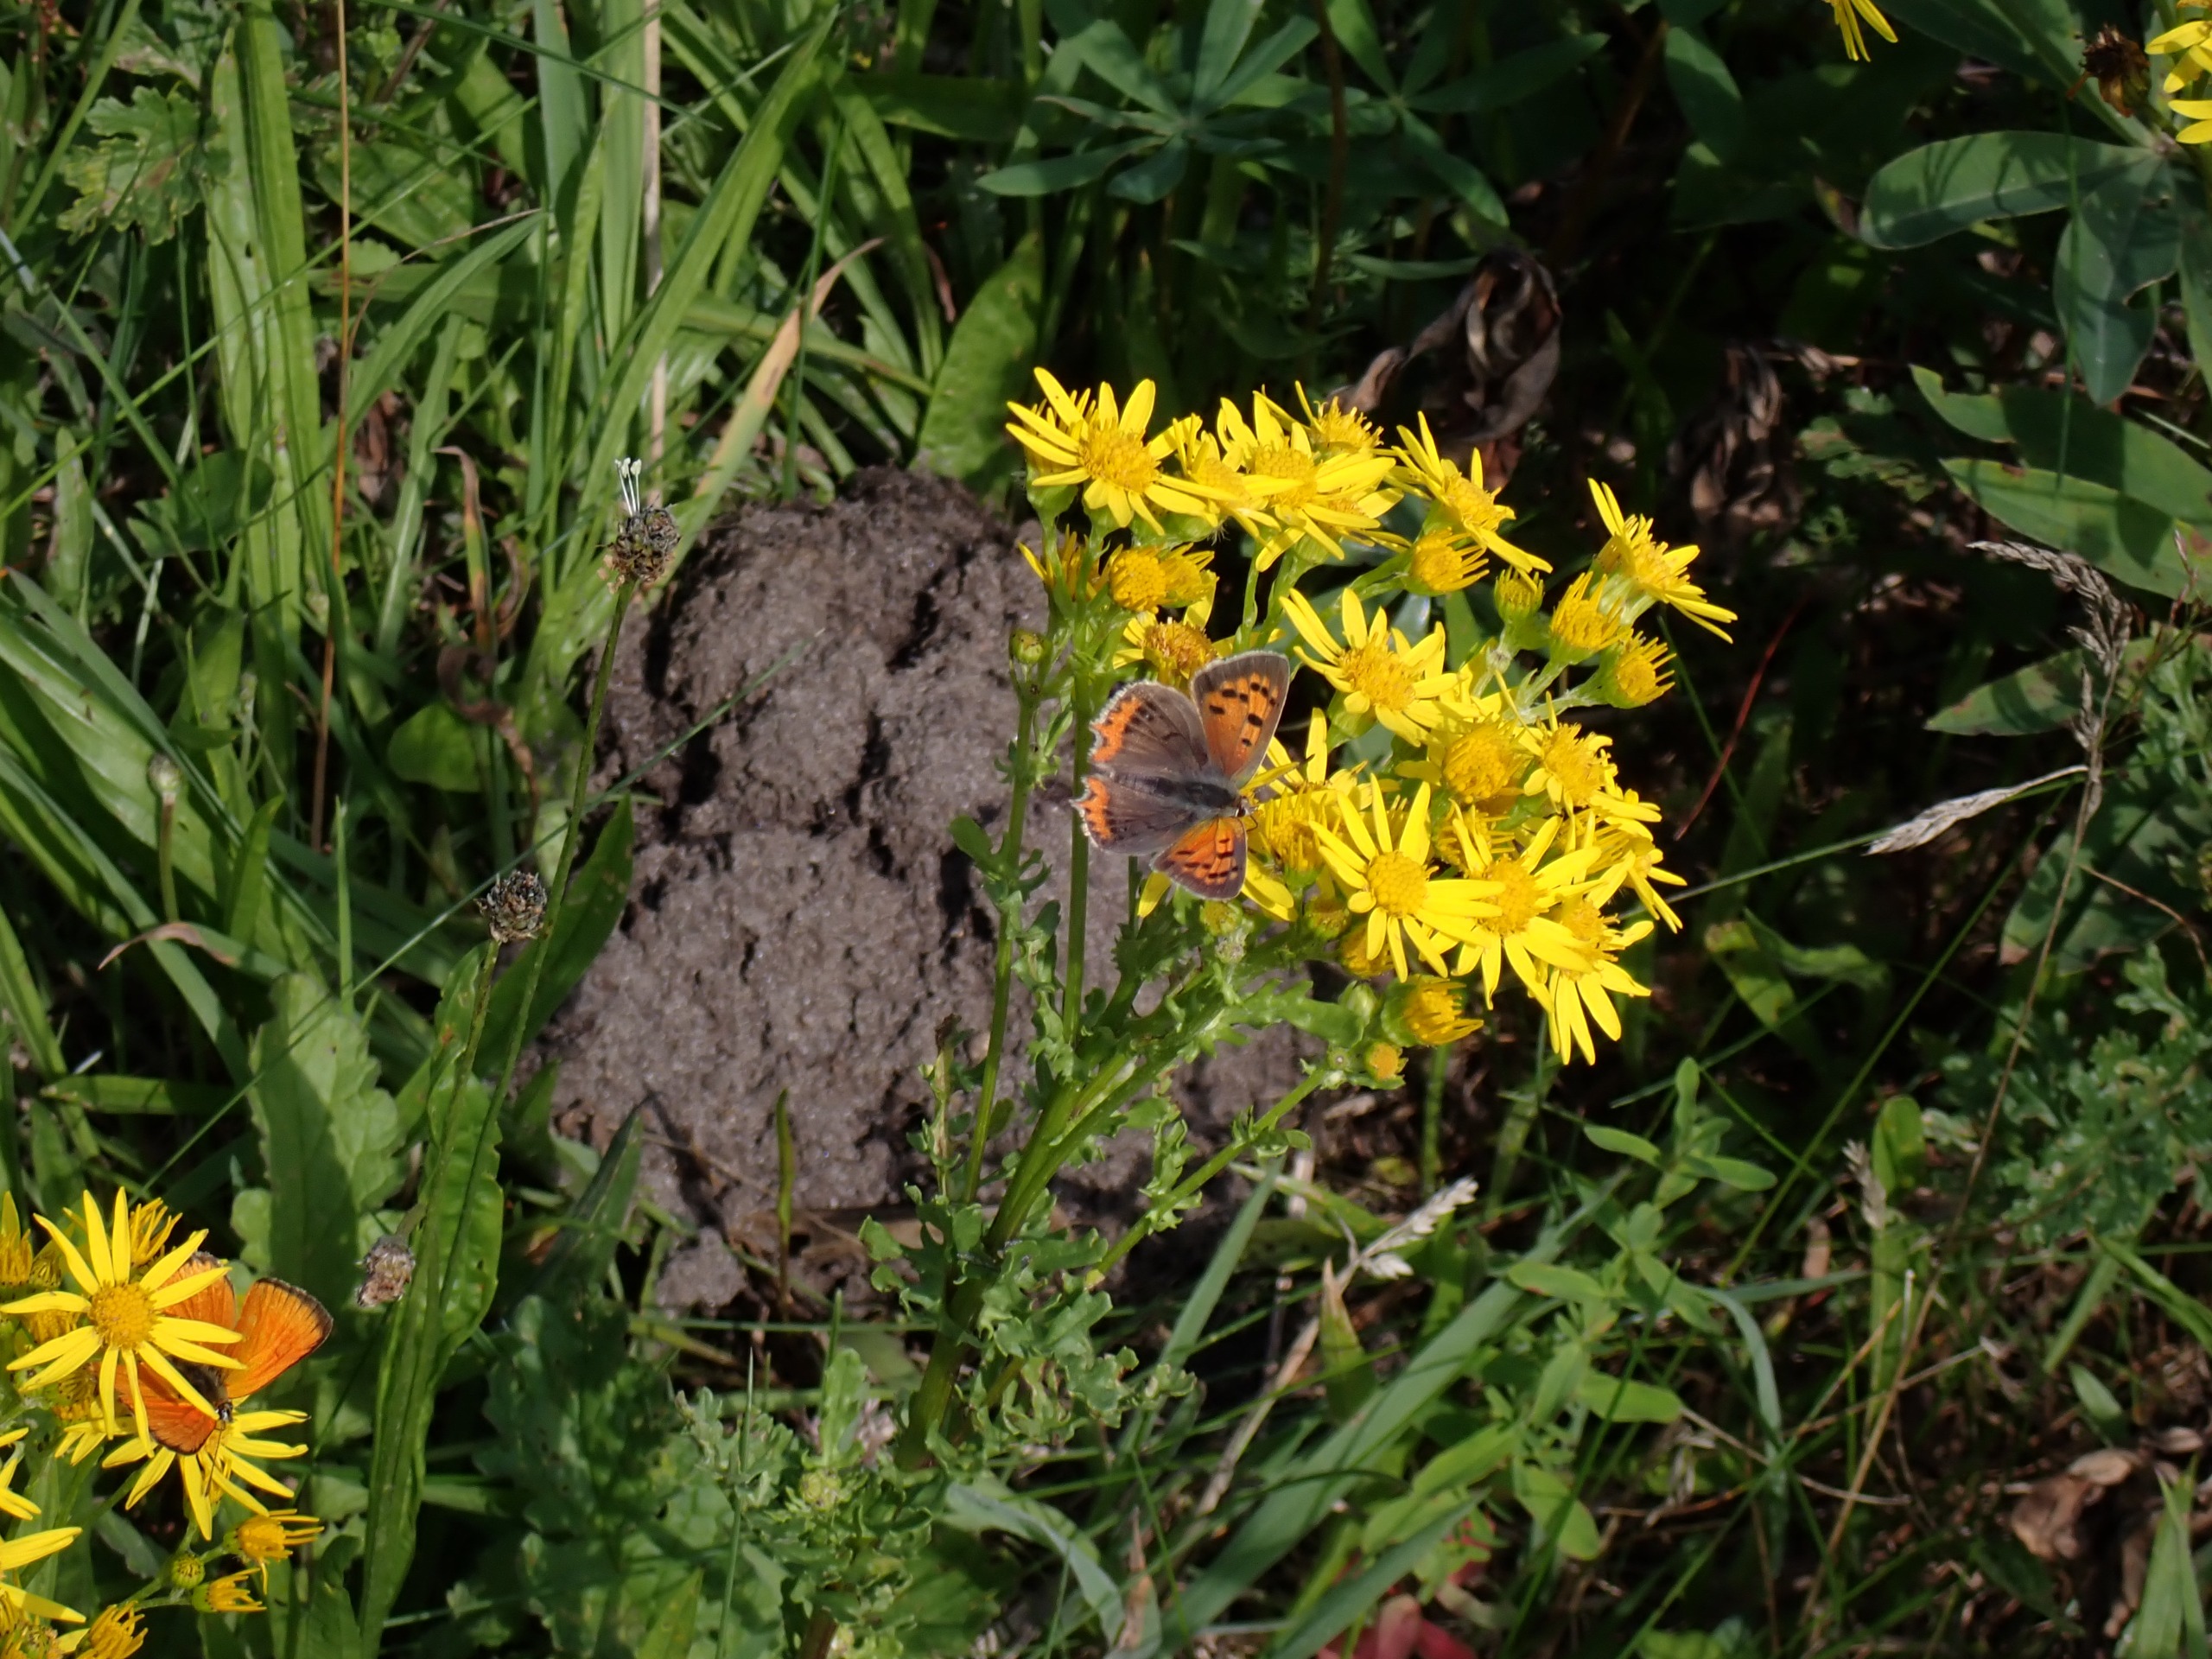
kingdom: Animalia
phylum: Arthropoda
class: Insecta
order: Lepidoptera
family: Lycaenidae
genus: Lycaena
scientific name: Lycaena phlaeas
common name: Lille ildfugl
